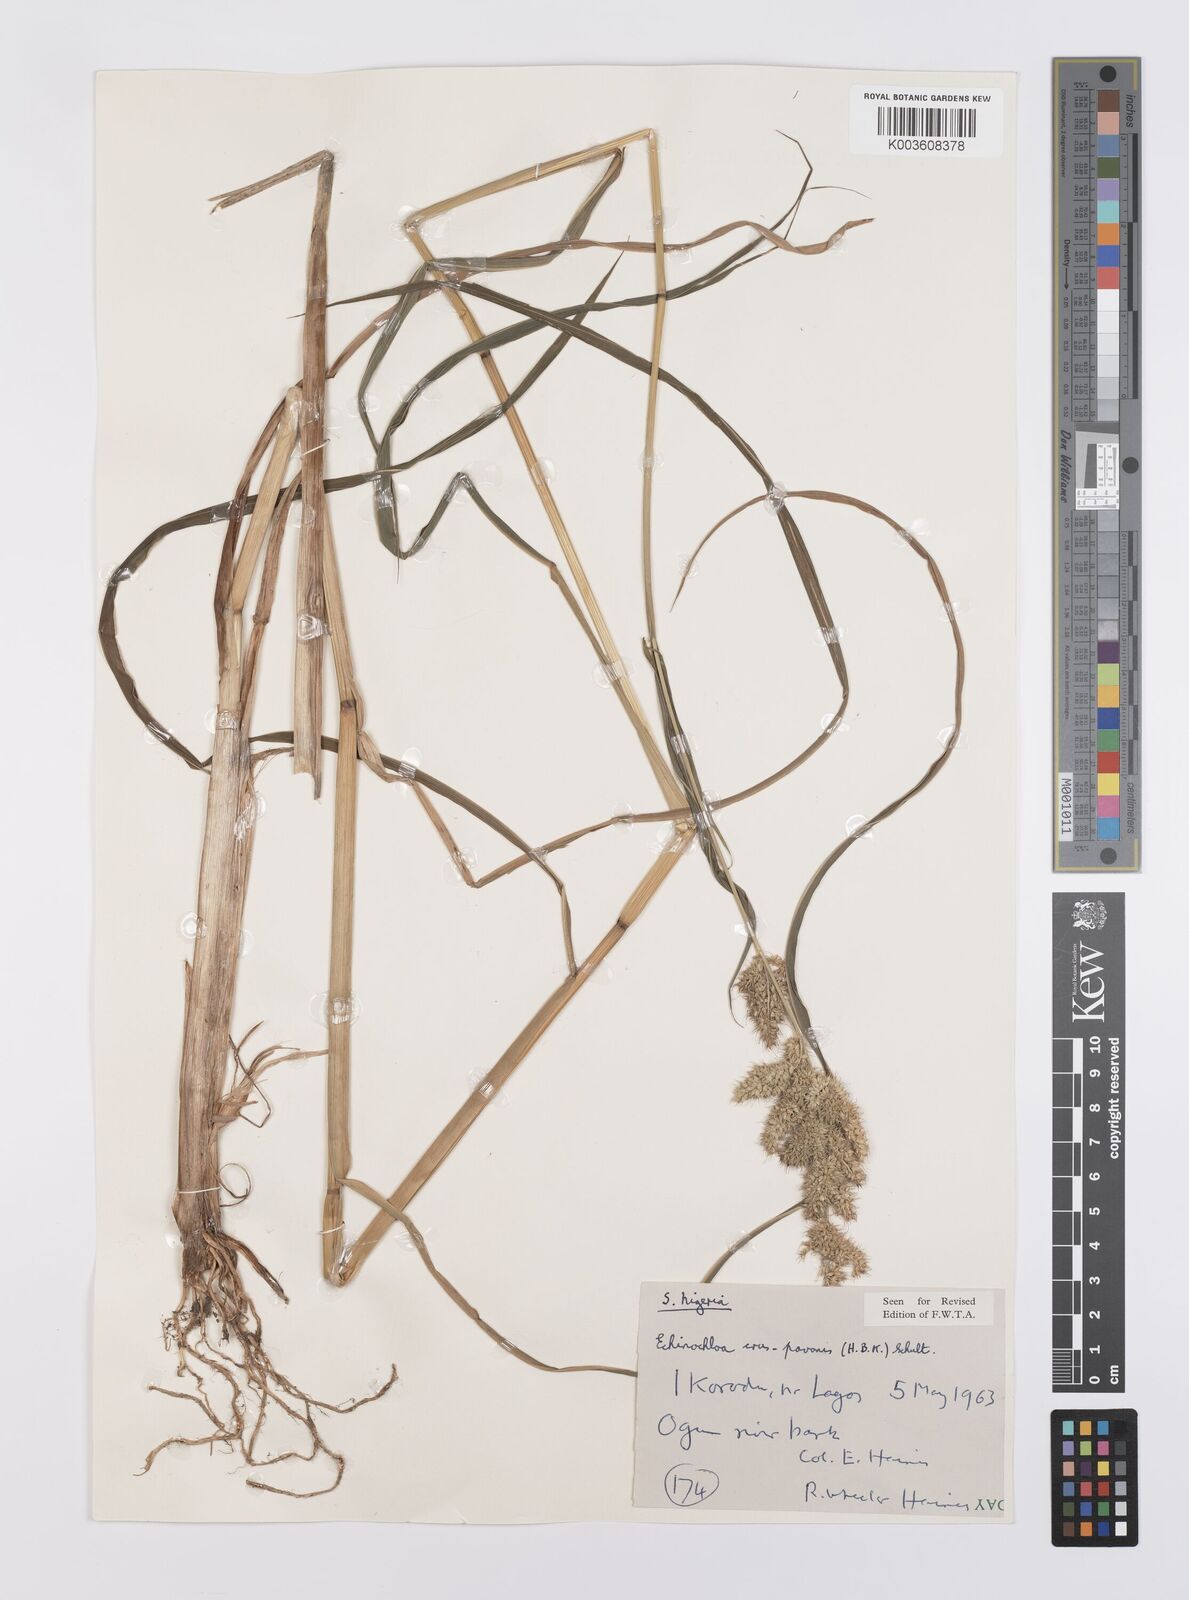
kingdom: Plantae
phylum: Tracheophyta
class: Liliopsida
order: Poales
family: Poaceae
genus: Echinochloa
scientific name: Echinochloa crus-pavonis
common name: Gulf cockspur grass
